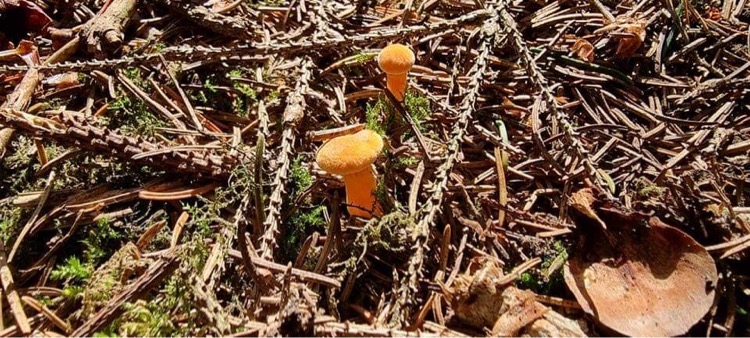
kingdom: Fungi
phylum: Basidiomycota
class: Agaricomycetes
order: Boletales
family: Hygrophoropsidaceae
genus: Hygrophoropsis
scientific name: Hygrophoropsis aurantiaca
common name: almindelig orangekantarel
